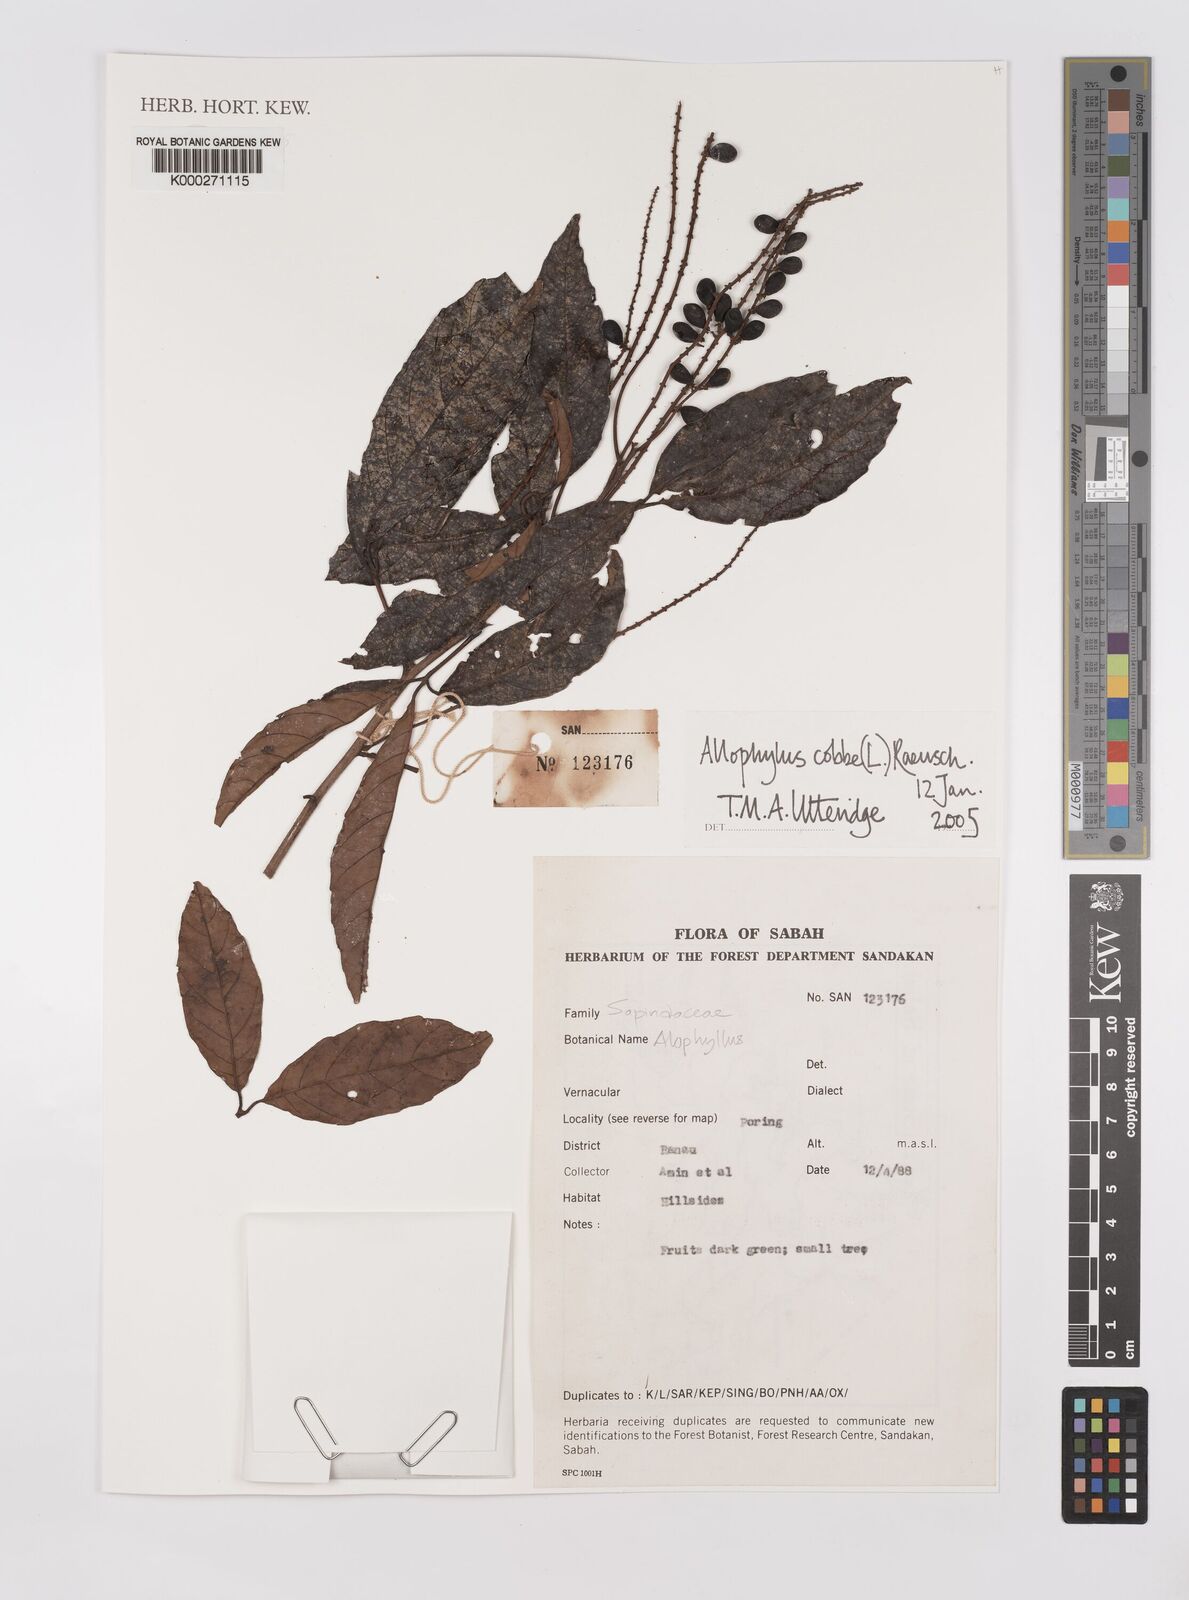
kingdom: Plantae
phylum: Tracheophyta
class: Magnoliopsida
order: Sapindales
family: Sapindaceae
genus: Allophylus
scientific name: Allophylus
